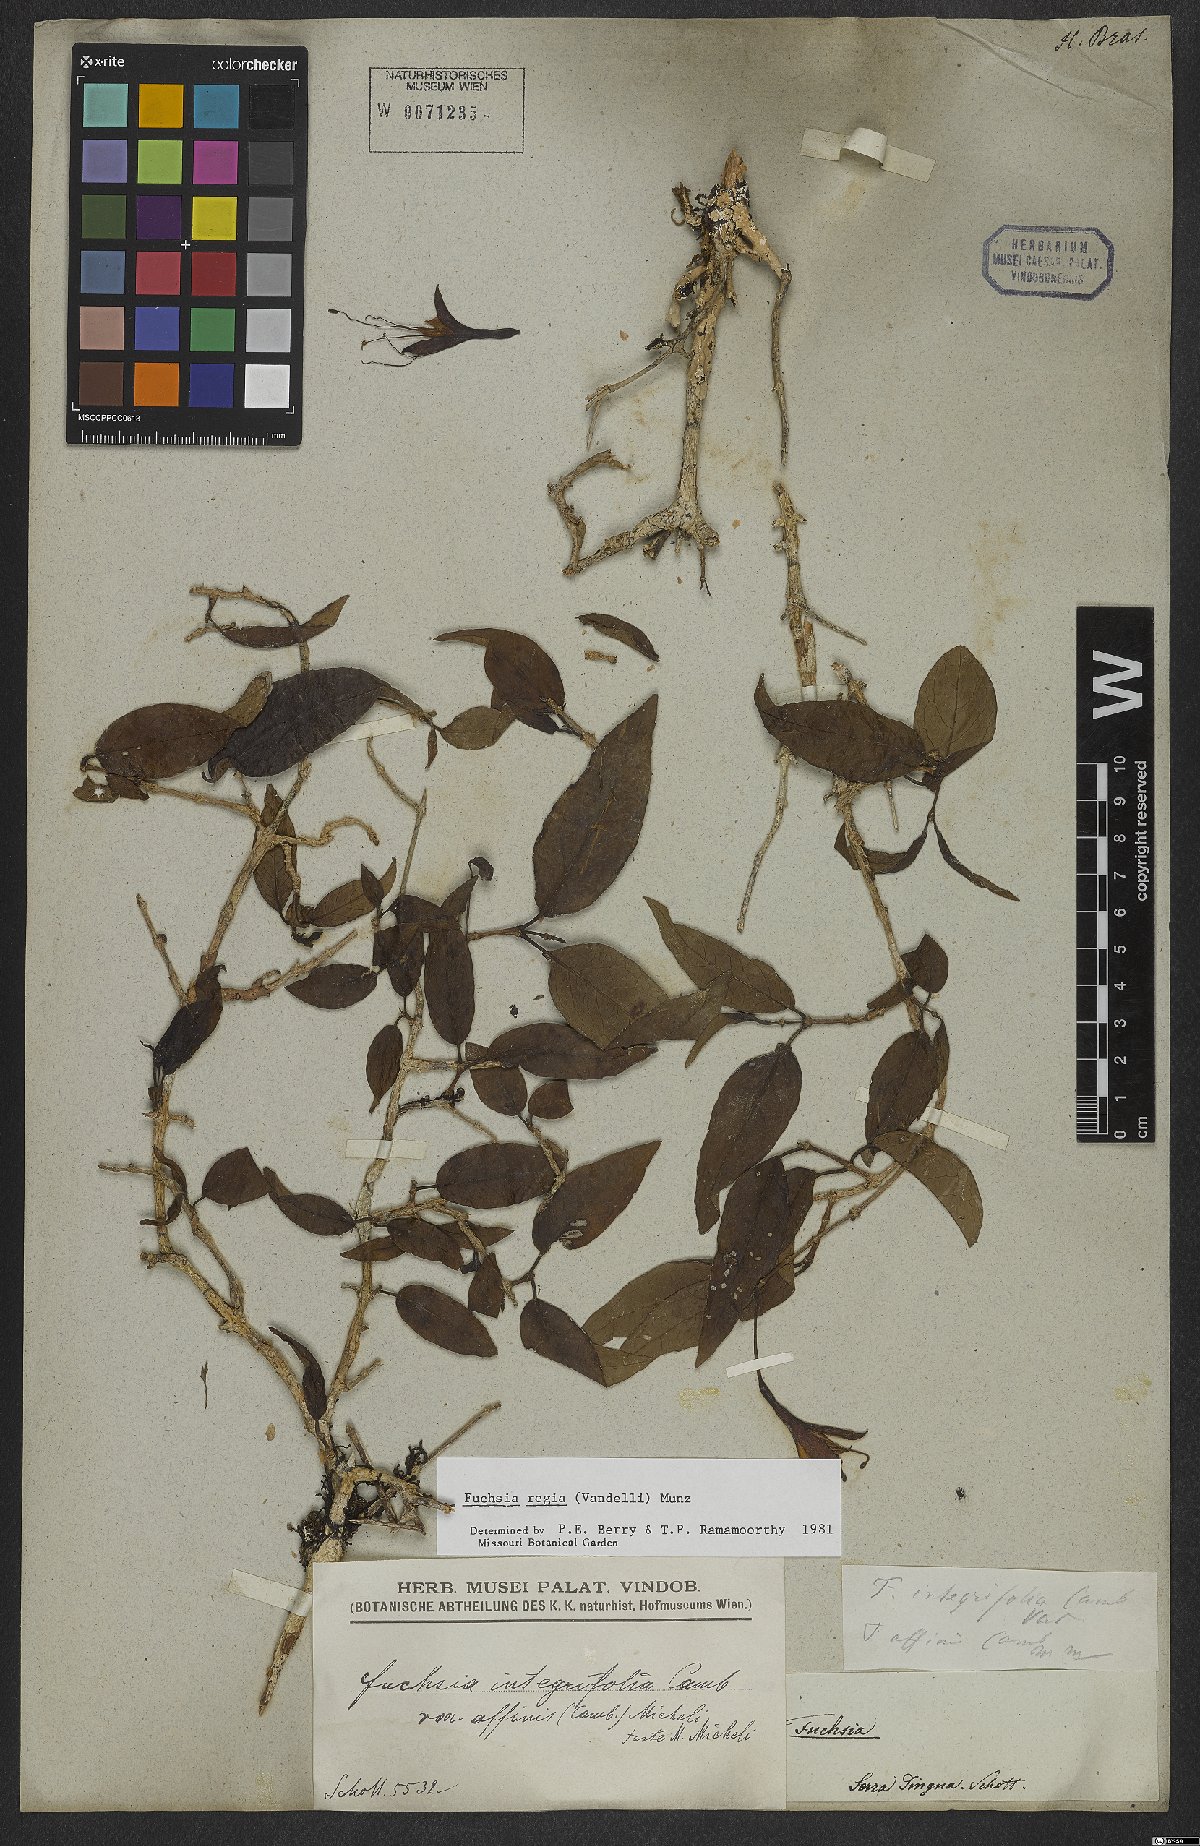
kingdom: Plantae
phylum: Tracheophyta
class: Magnoliopsida
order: Myrtales
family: Onagraceae
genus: Fuchsia
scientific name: Fuchsia regia
